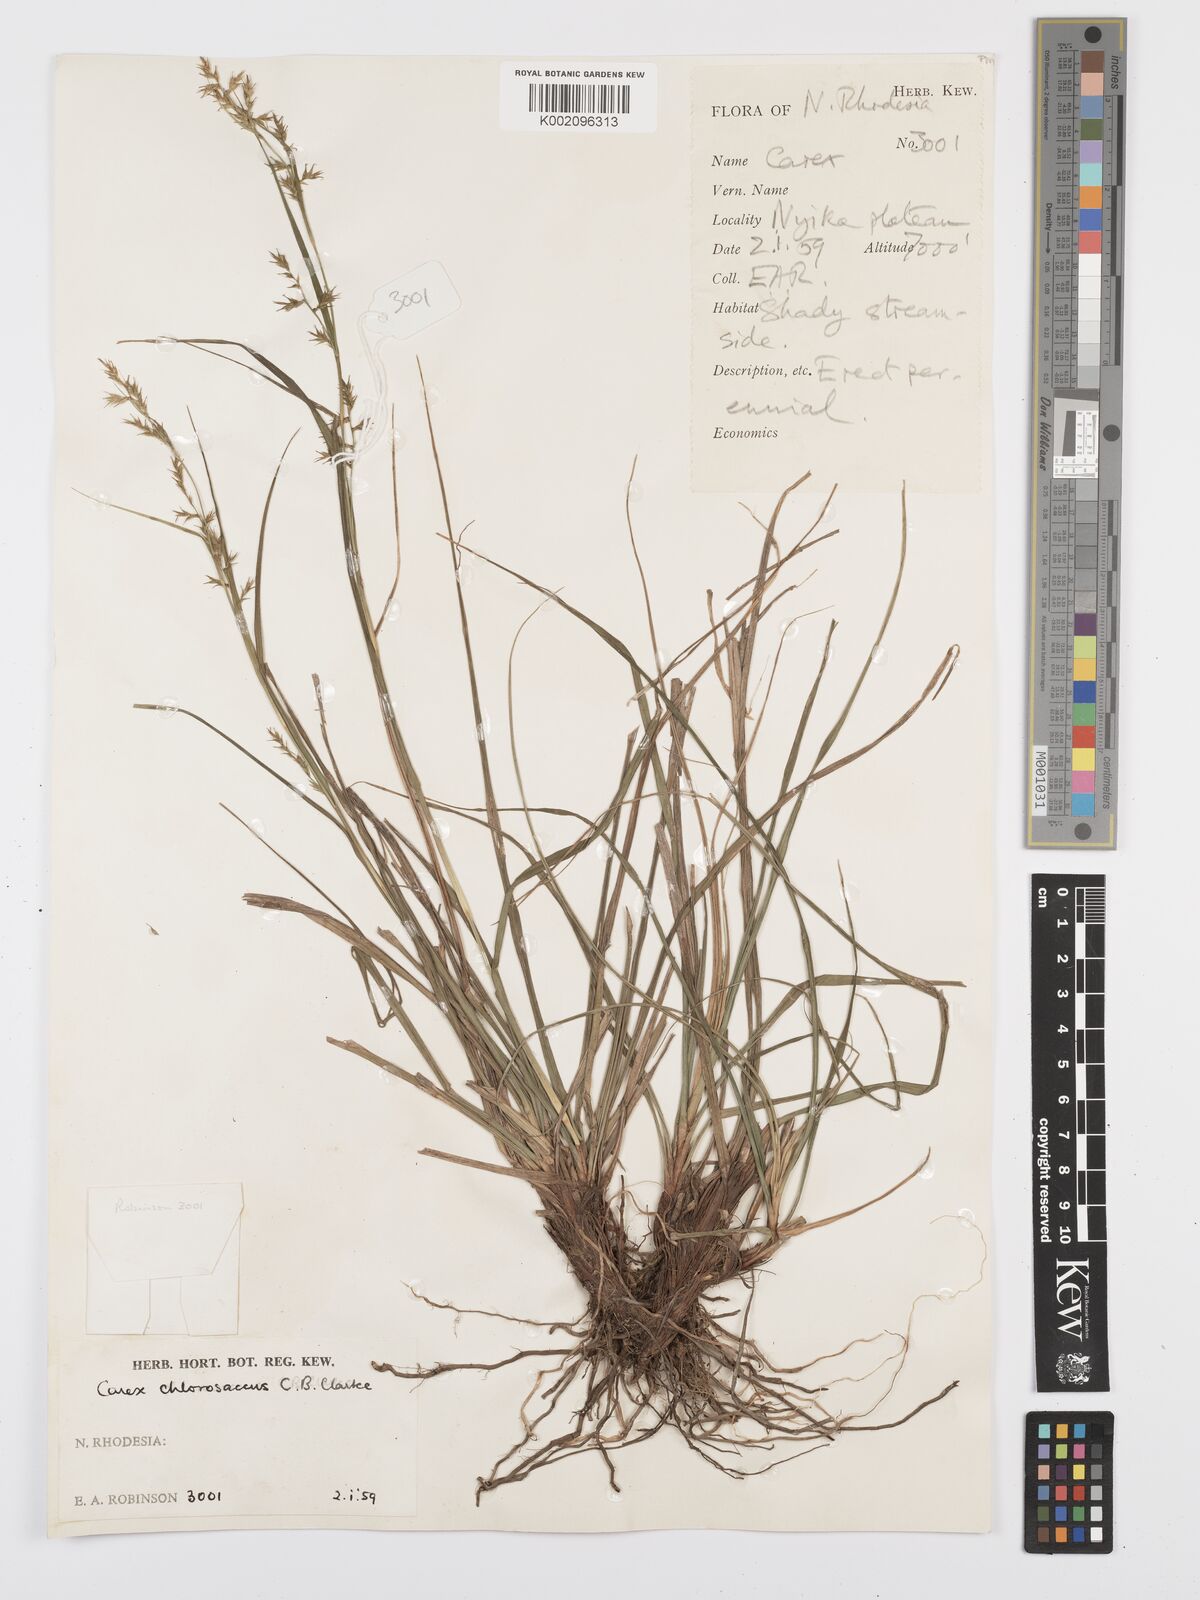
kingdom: Plantae
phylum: Tracheophyta
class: Liliopsida
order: Poales
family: Cyperaceae
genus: Carex
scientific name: Carex chlorosaccus
